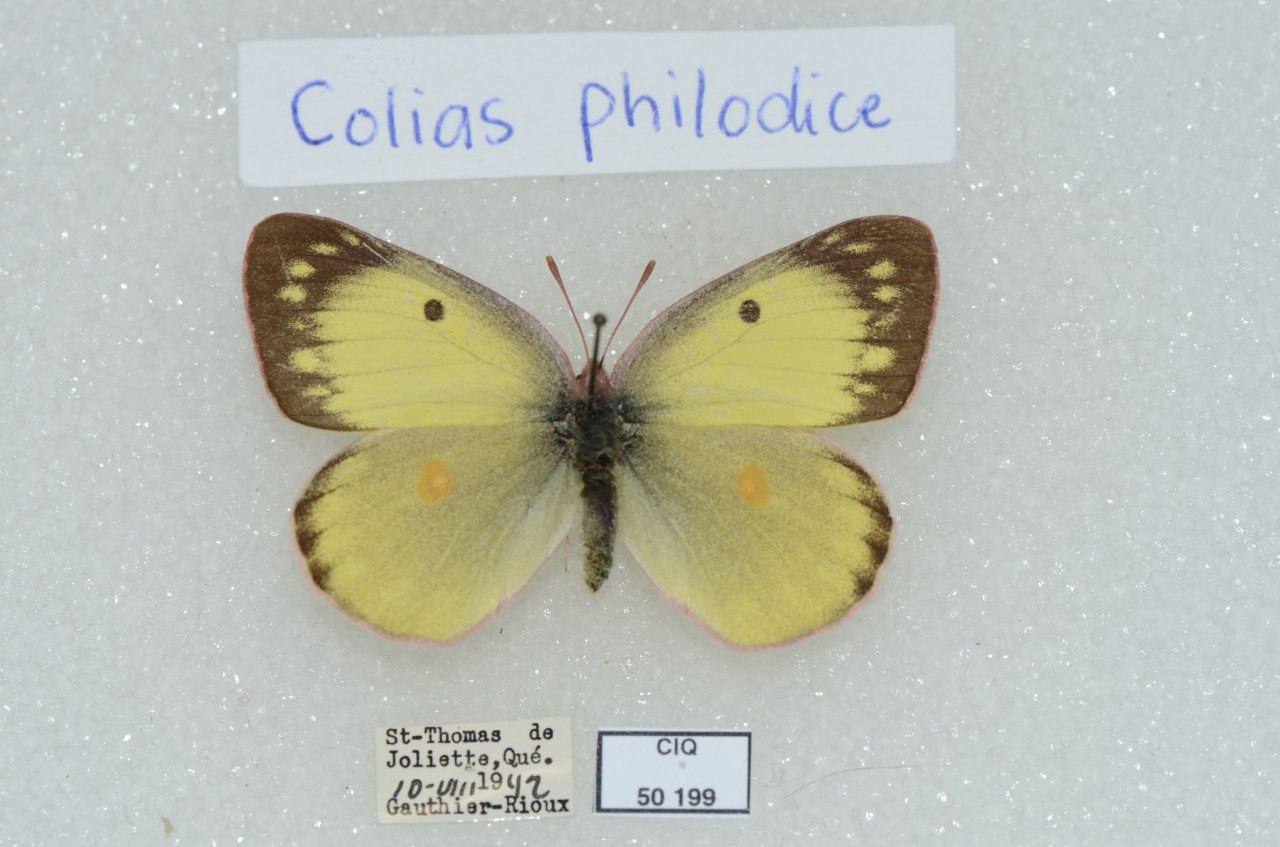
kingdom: Animalia
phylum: Arthropoda
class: Insecta
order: Lepidoptera
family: Pieridae
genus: Colias
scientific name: Colias philodice
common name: Clouded Sulphur
